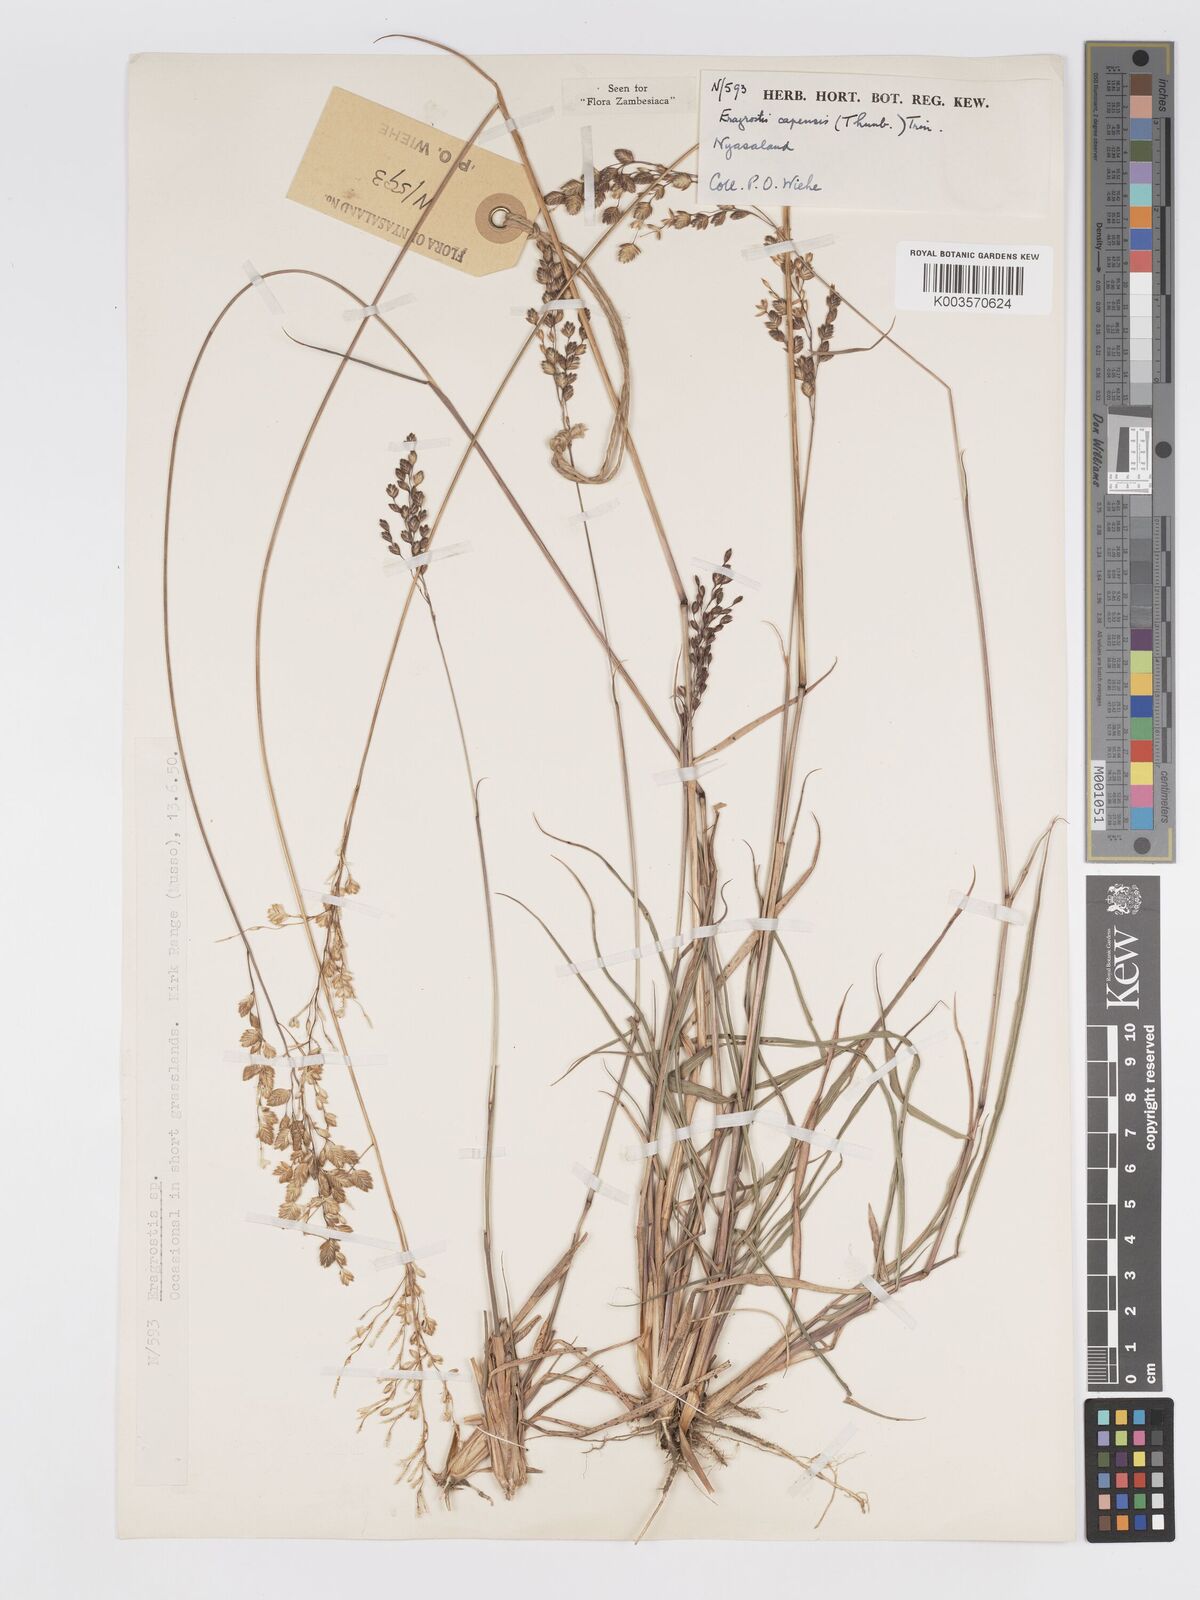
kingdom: Plantae
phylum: Tracheophyta
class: Liliopsida
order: Poales
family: Poaceae
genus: Eragrostis
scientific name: Eragrostis capensis
